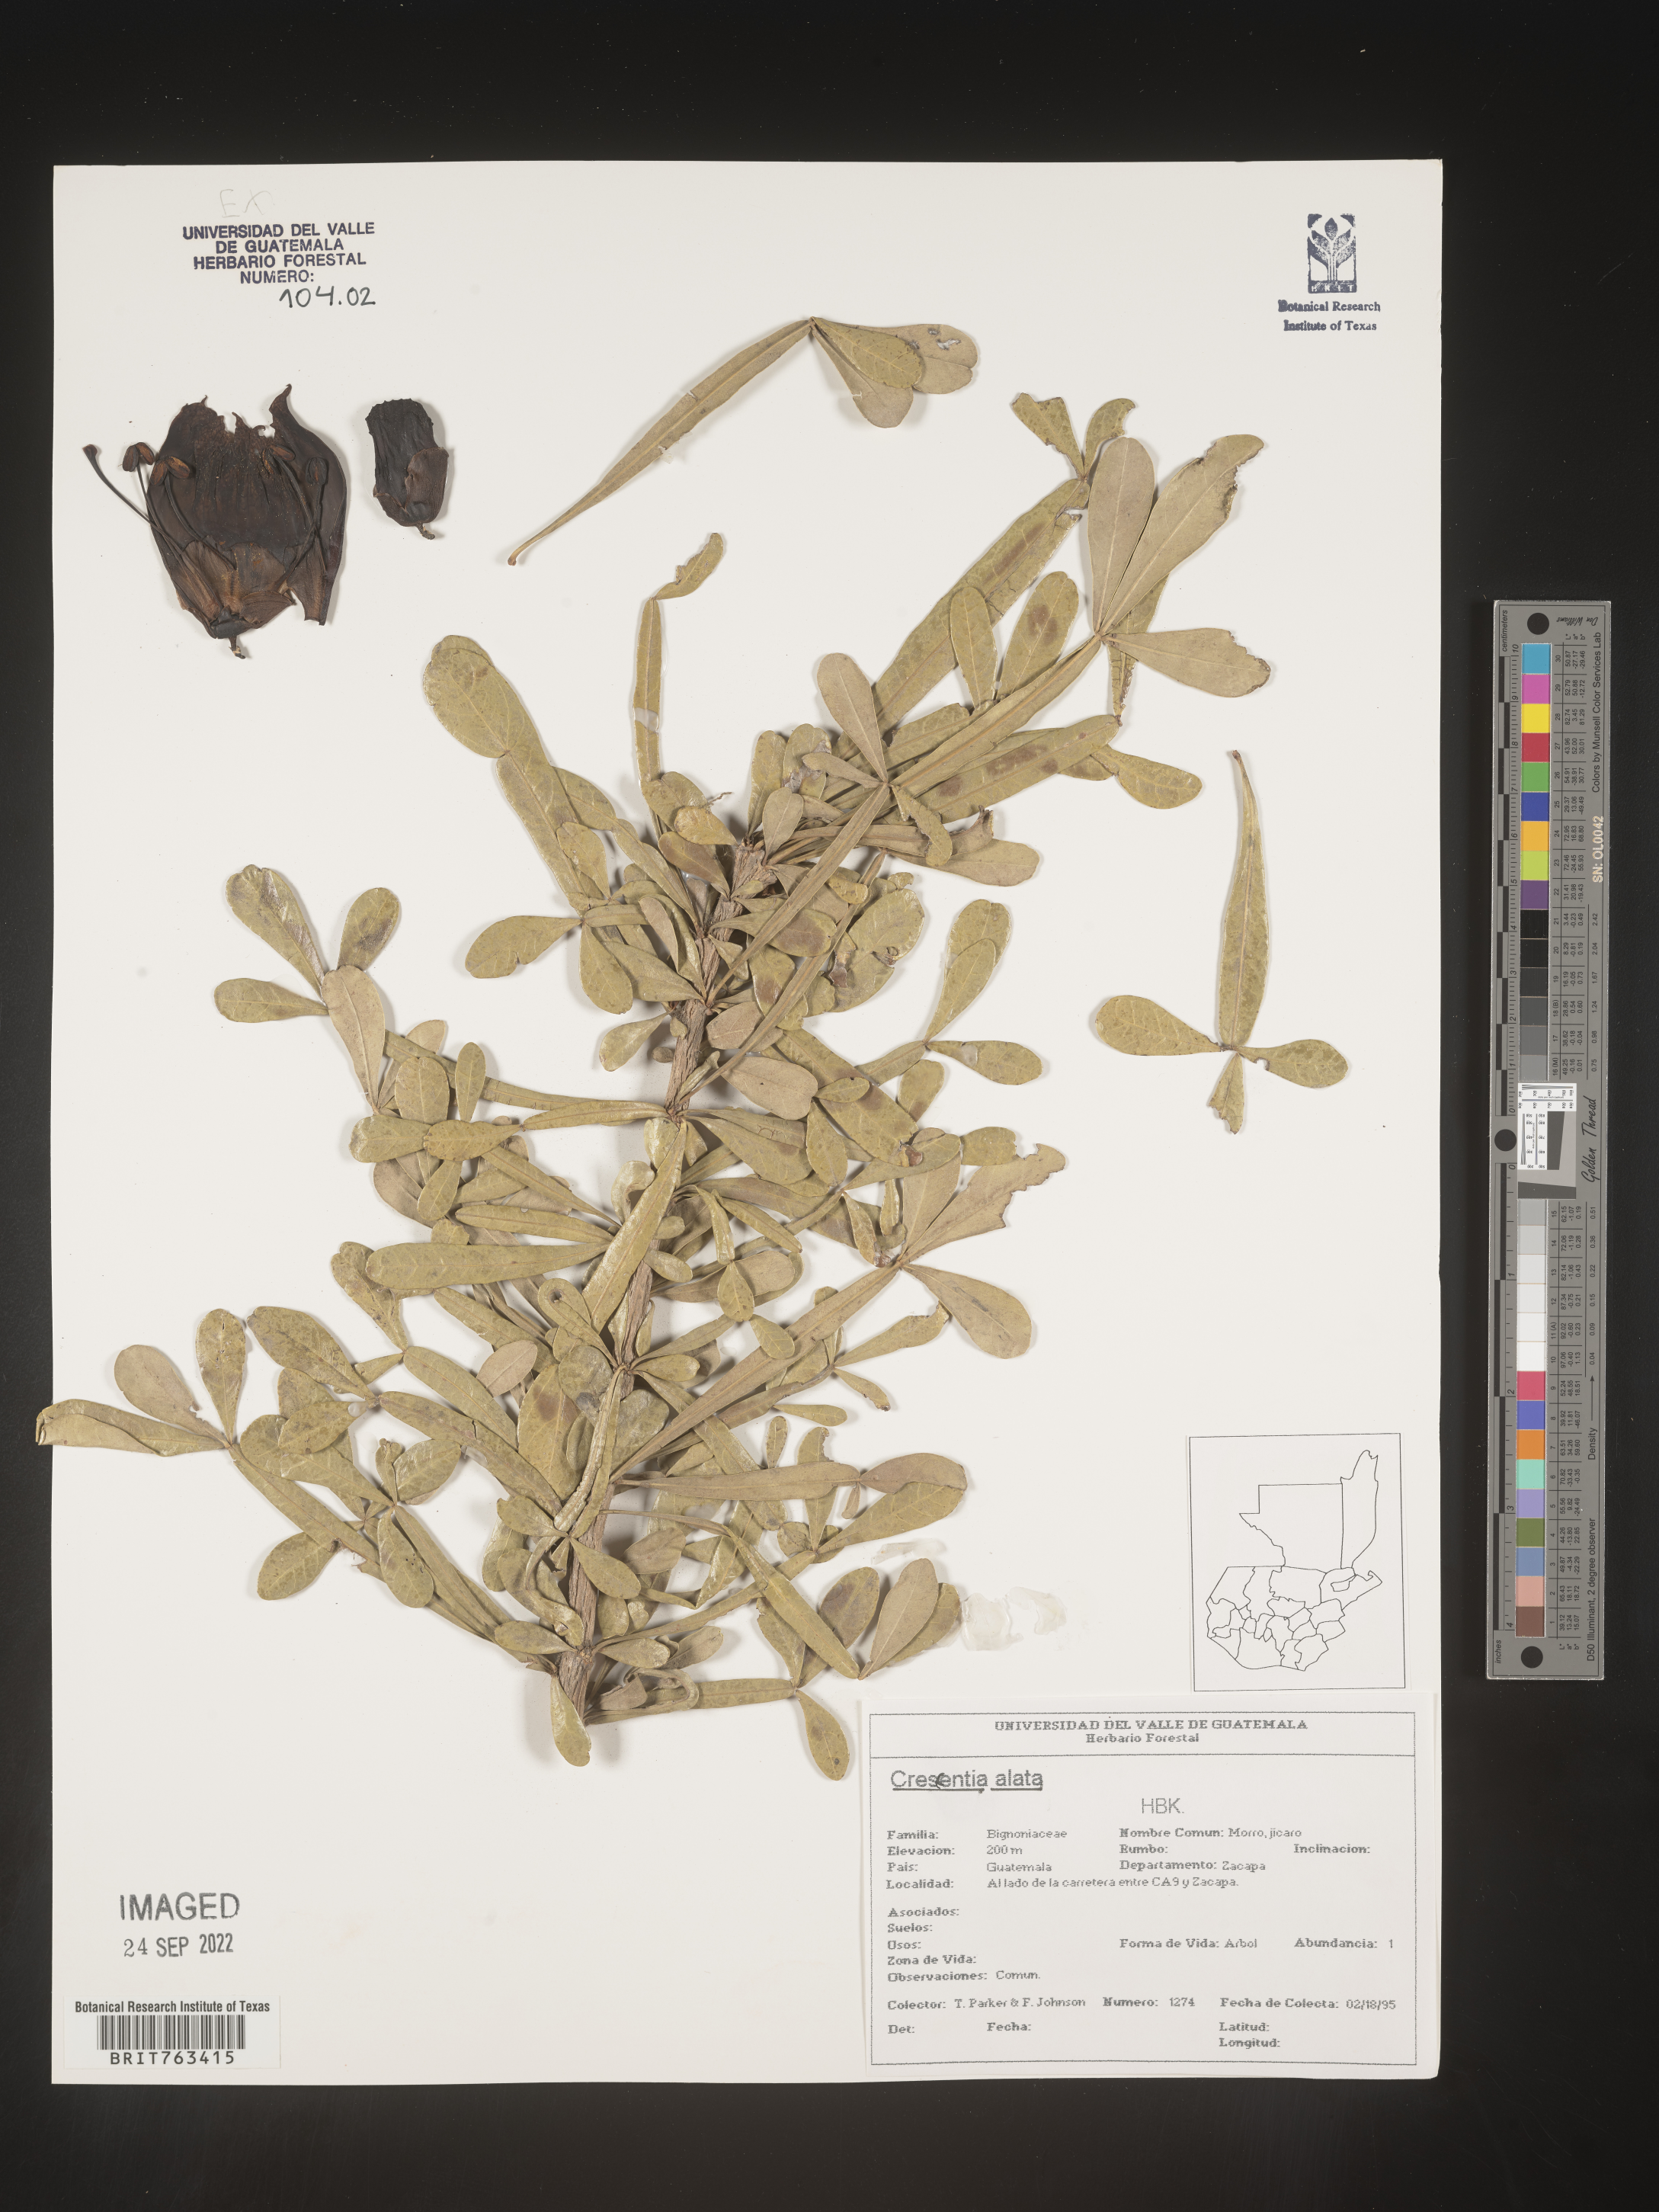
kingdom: Plantae
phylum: Tracheophyta
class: Magnoliopsida
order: Lamiales
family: Bignoniaceae
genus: Crescentia
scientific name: Crescentia
